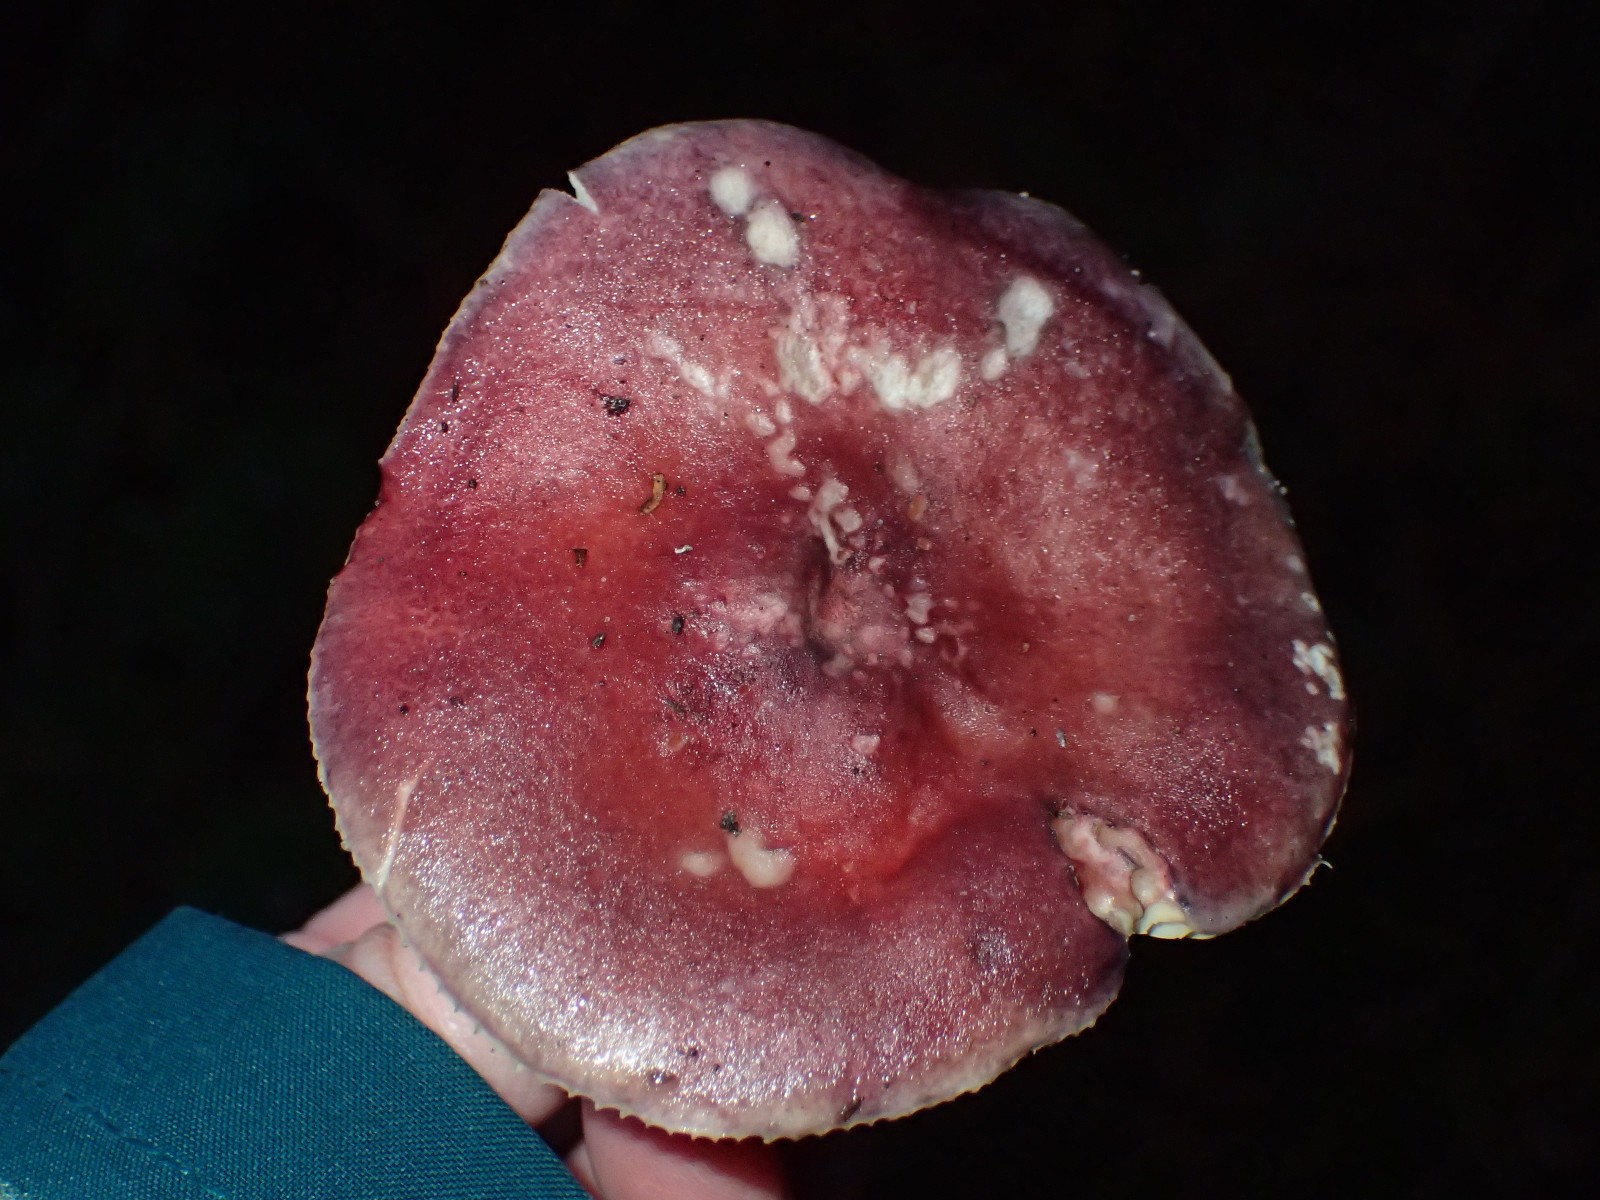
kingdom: Fungi
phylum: Basidiomycota
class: Agaricomycetes
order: Russulales
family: Russulaceae
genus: Russula
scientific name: Russula sanguinea
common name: blodrød skørhat
